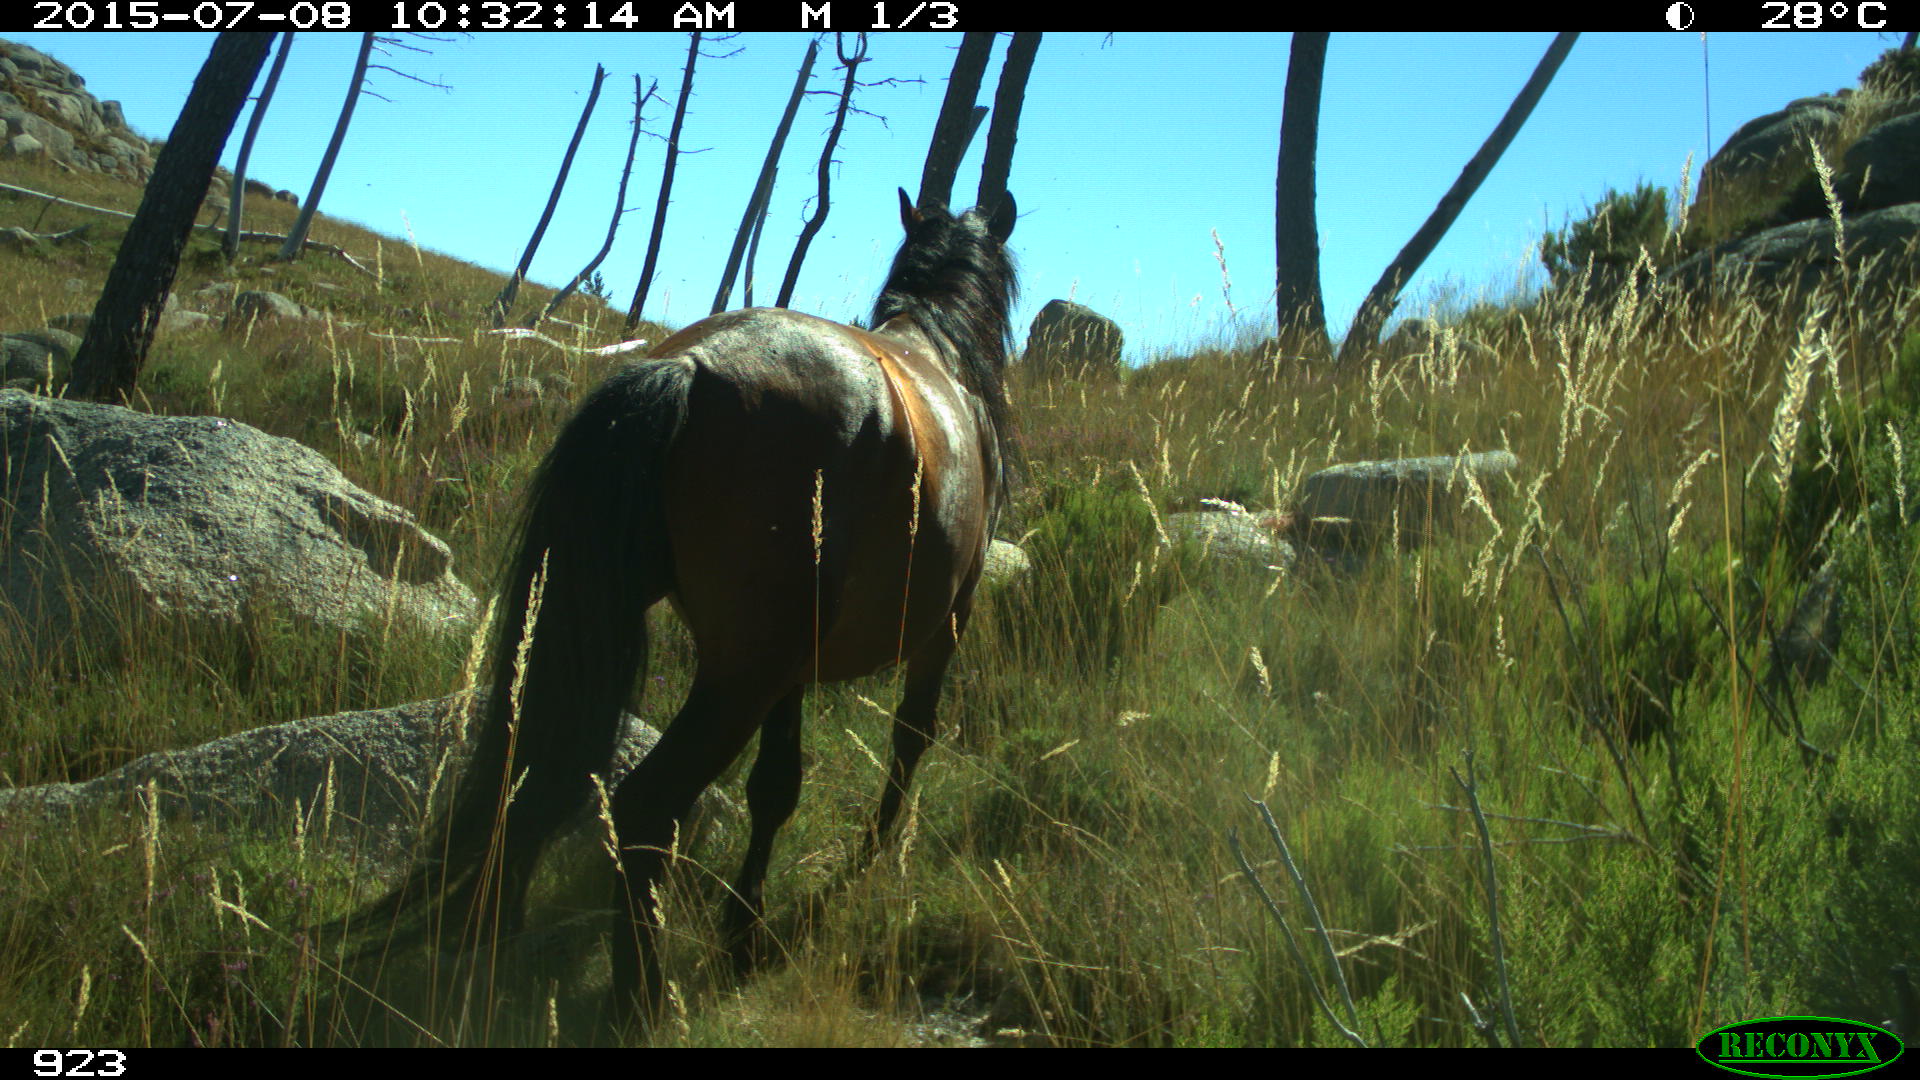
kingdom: Animalia
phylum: Chordata
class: Mammalia
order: Perissodactyla
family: Equidae
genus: Equus
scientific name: Equus caballus
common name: Horse
